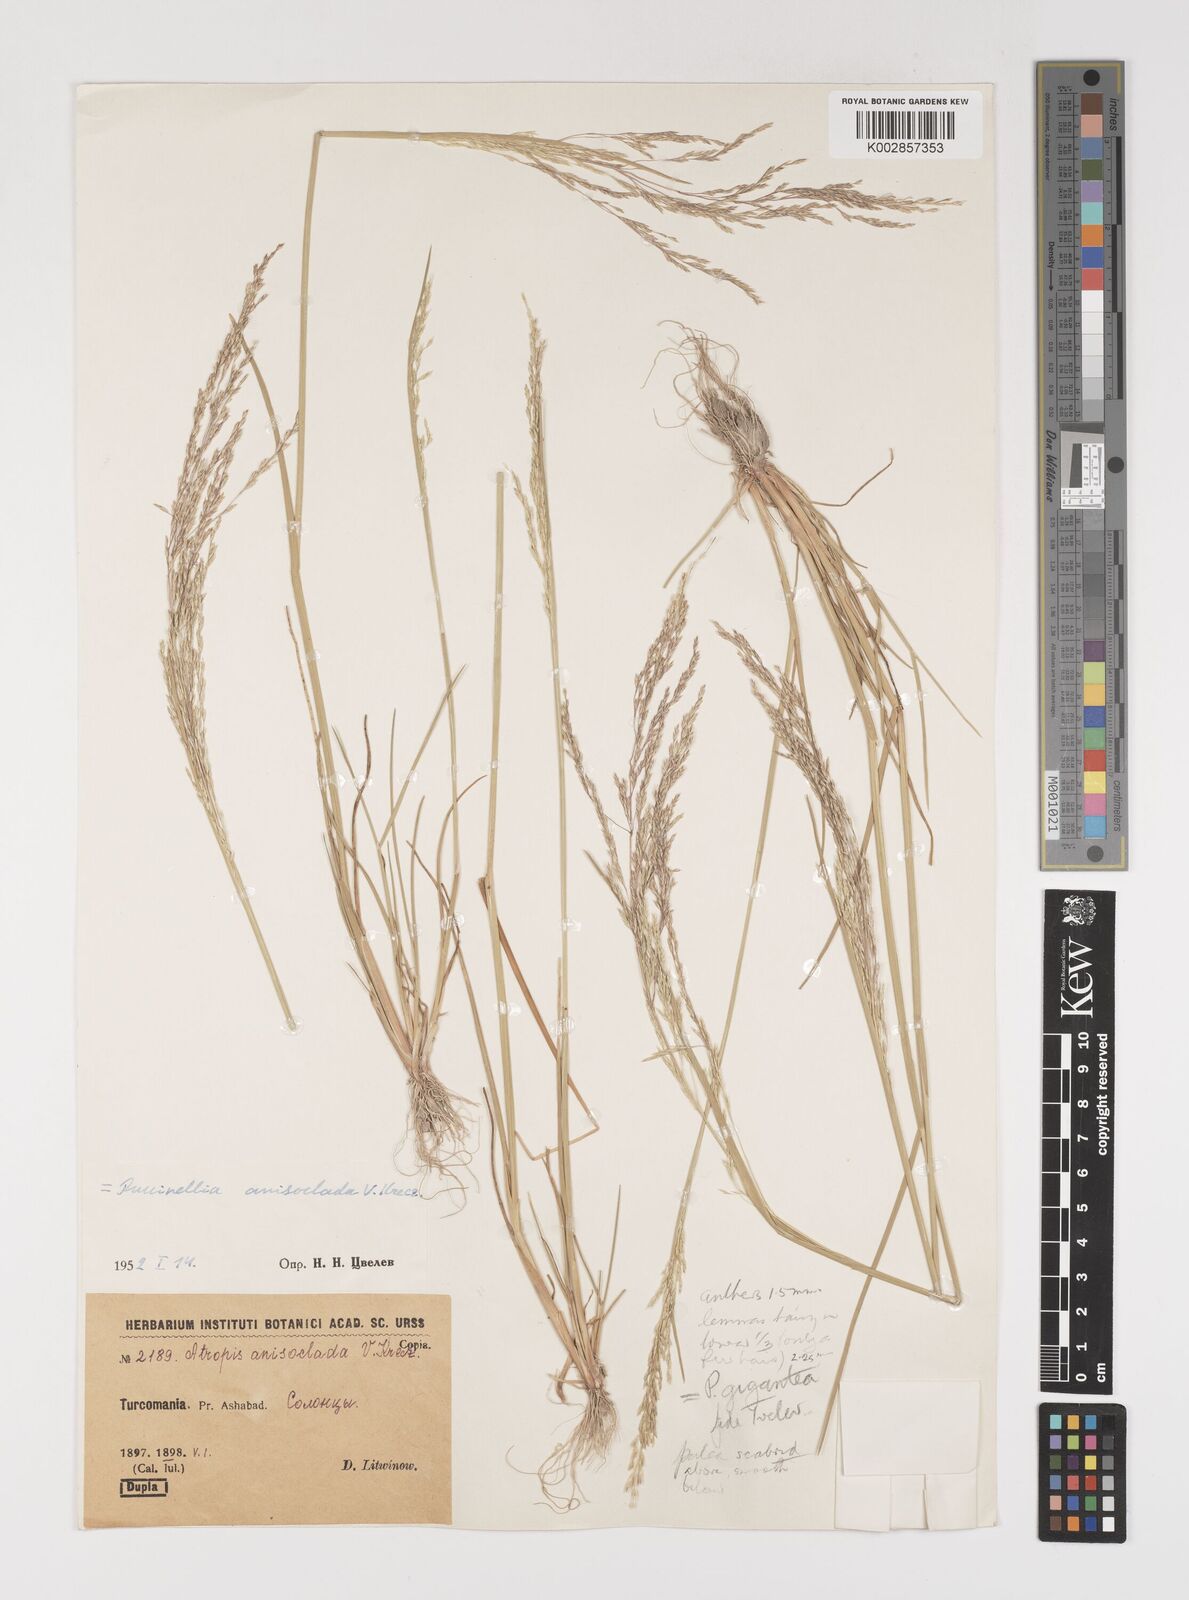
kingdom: Plantae
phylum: Tracheophyta
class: Liliopsida
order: Poales
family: Poaceae
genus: Puccinellia
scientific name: Puccinellia gigantea
